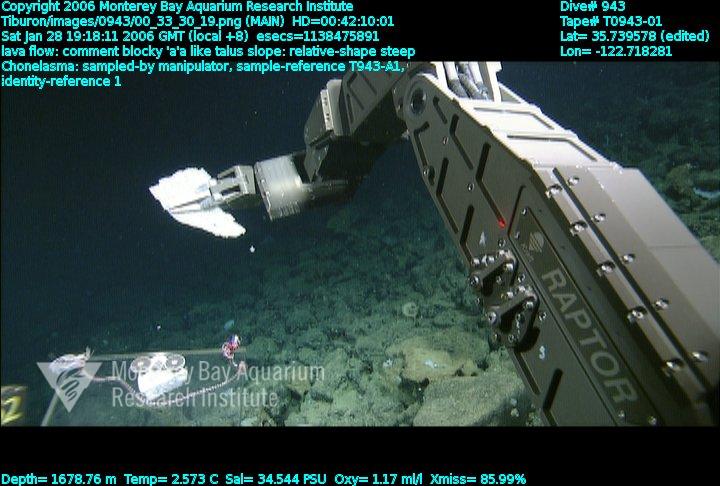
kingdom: Animalia
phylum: Porifera
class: Hexactinellida
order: Sceptrulophora
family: Euretidae
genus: Chonelasma
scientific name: Chonelasma
